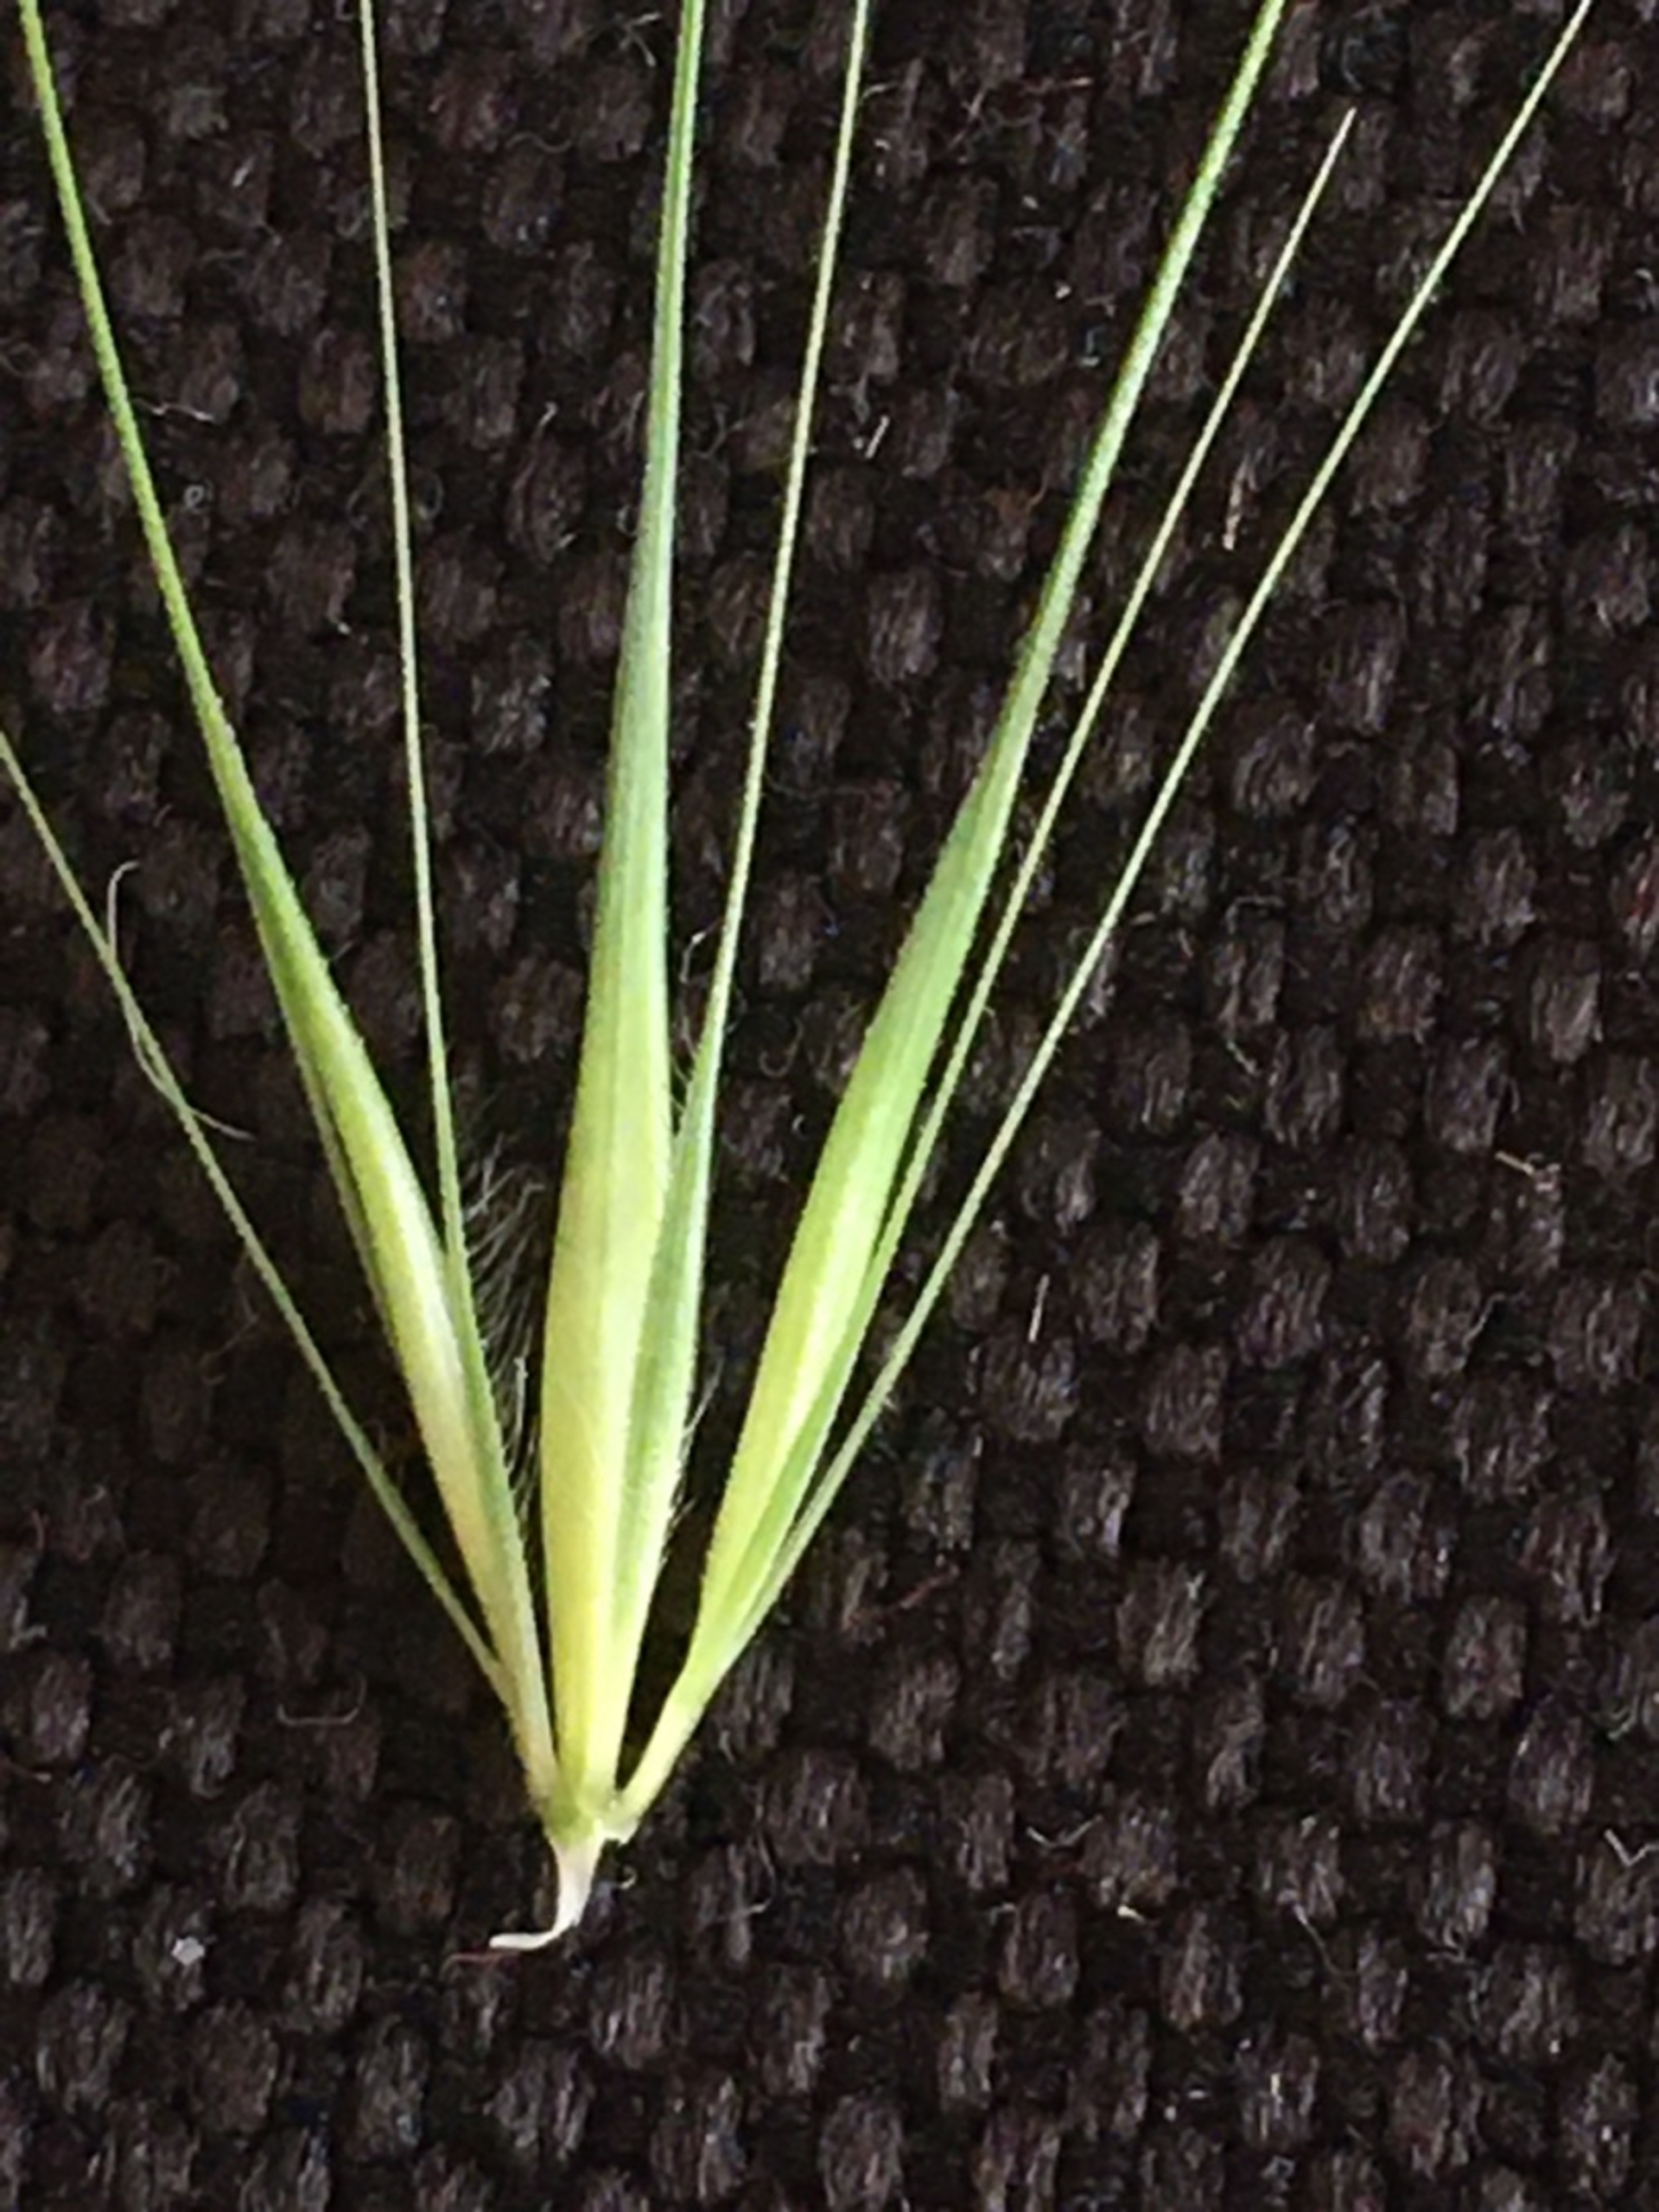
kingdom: Plantae
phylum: Tracheophyta
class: Liliopsida
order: Poales
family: Poaceae
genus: Hordeum
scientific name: Hordeum murinum
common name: Gold byg
